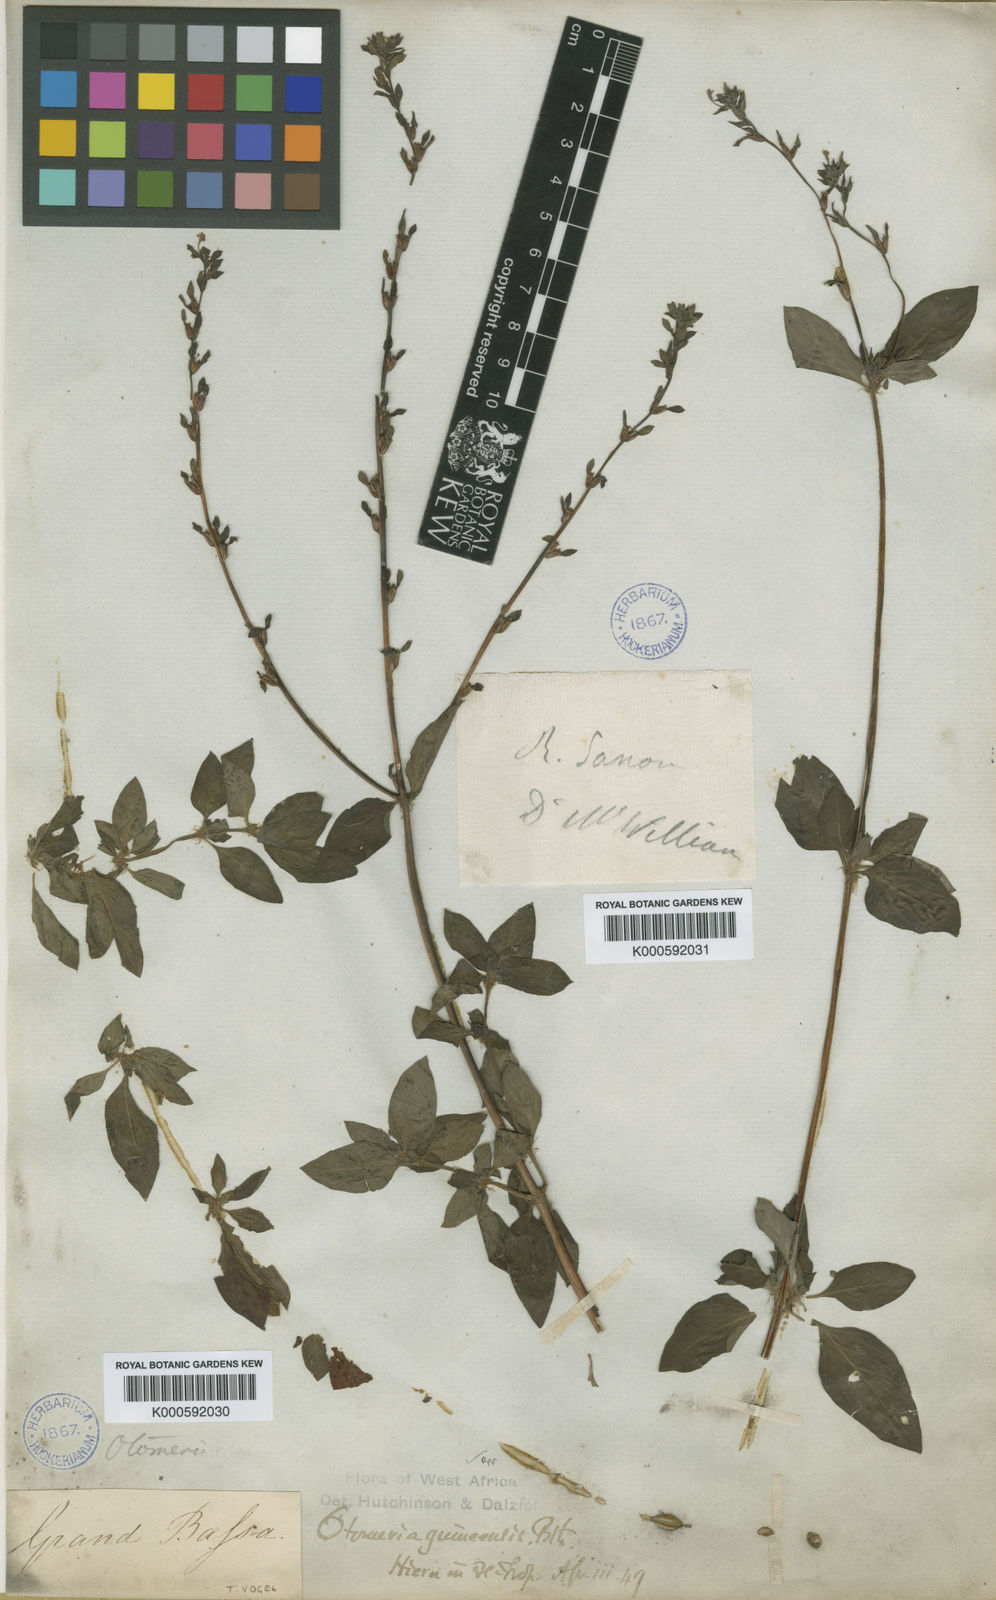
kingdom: Plantae
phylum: Tracheophyta
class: Magnoliopsida
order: Gentianales
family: Rubiaceae
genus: Otomeria
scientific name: Otomeria guineensis
